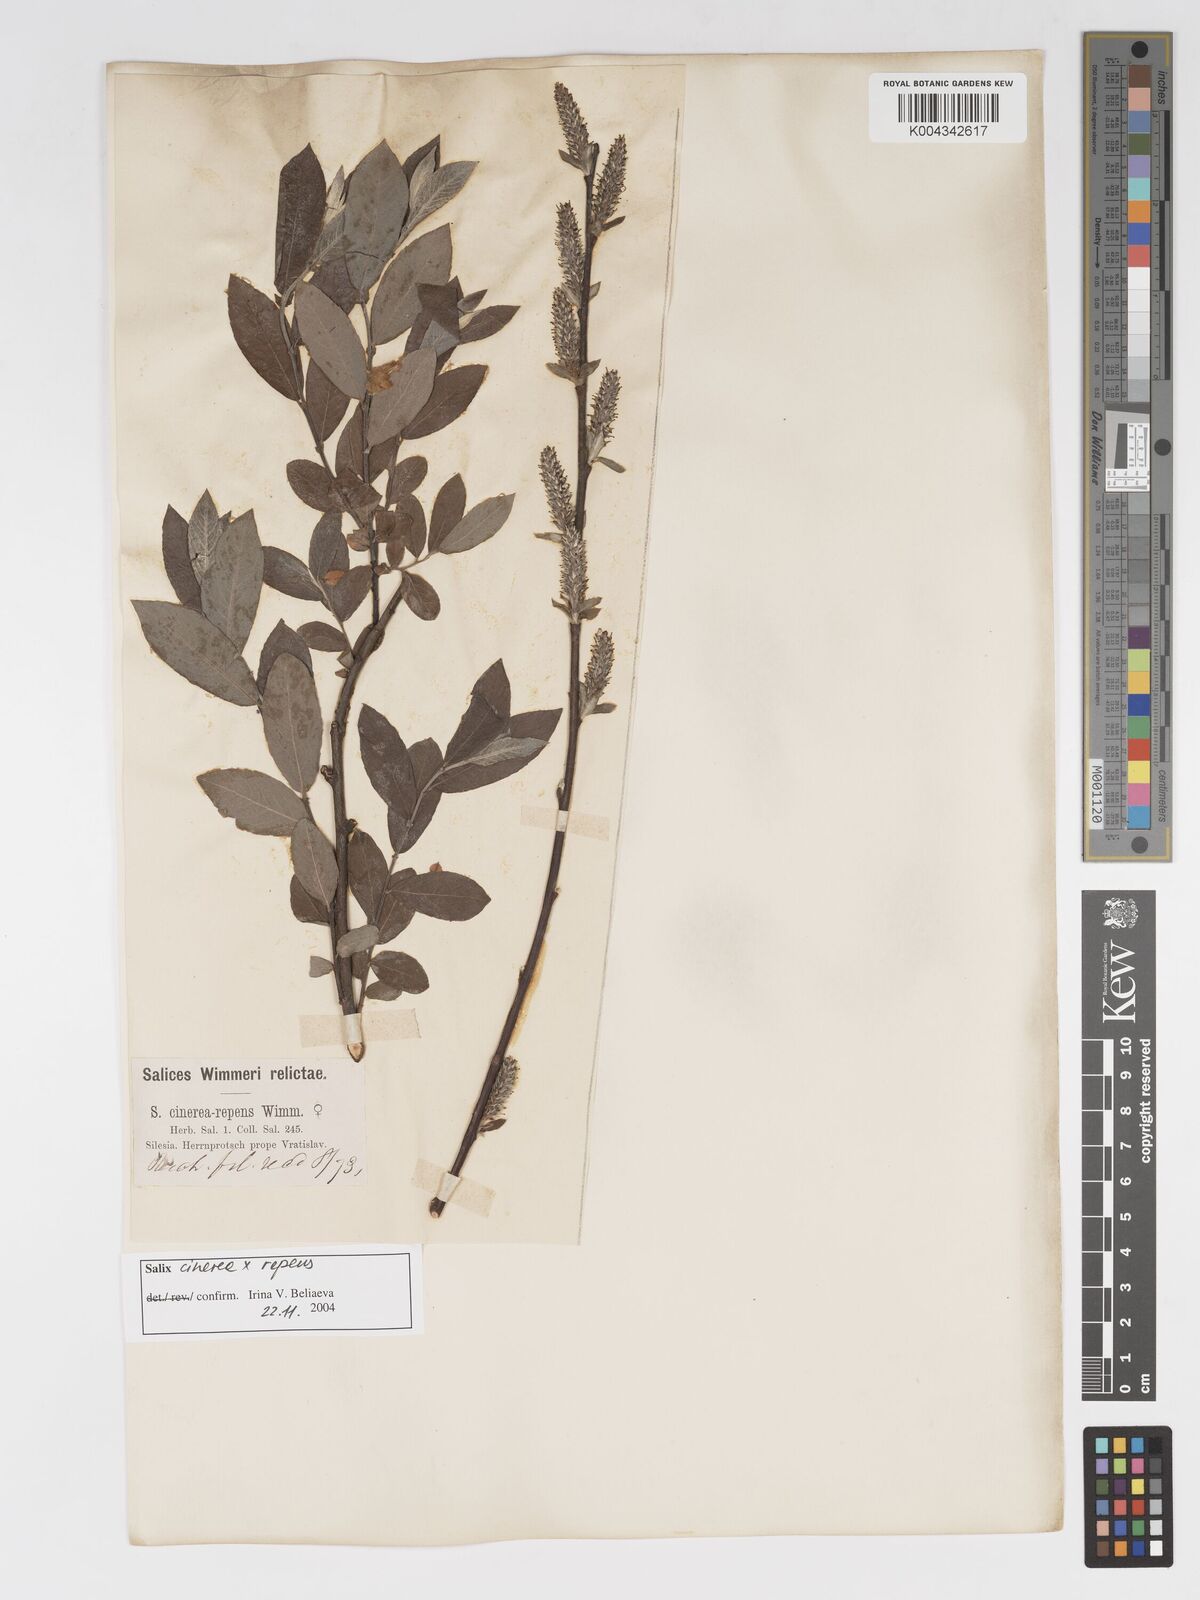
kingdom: Plantae
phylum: Tracheophyta
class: Magnoliopsida
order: Malpighiales
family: Salicaceae
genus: Salix
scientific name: Salix cinerea
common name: Common sallow
